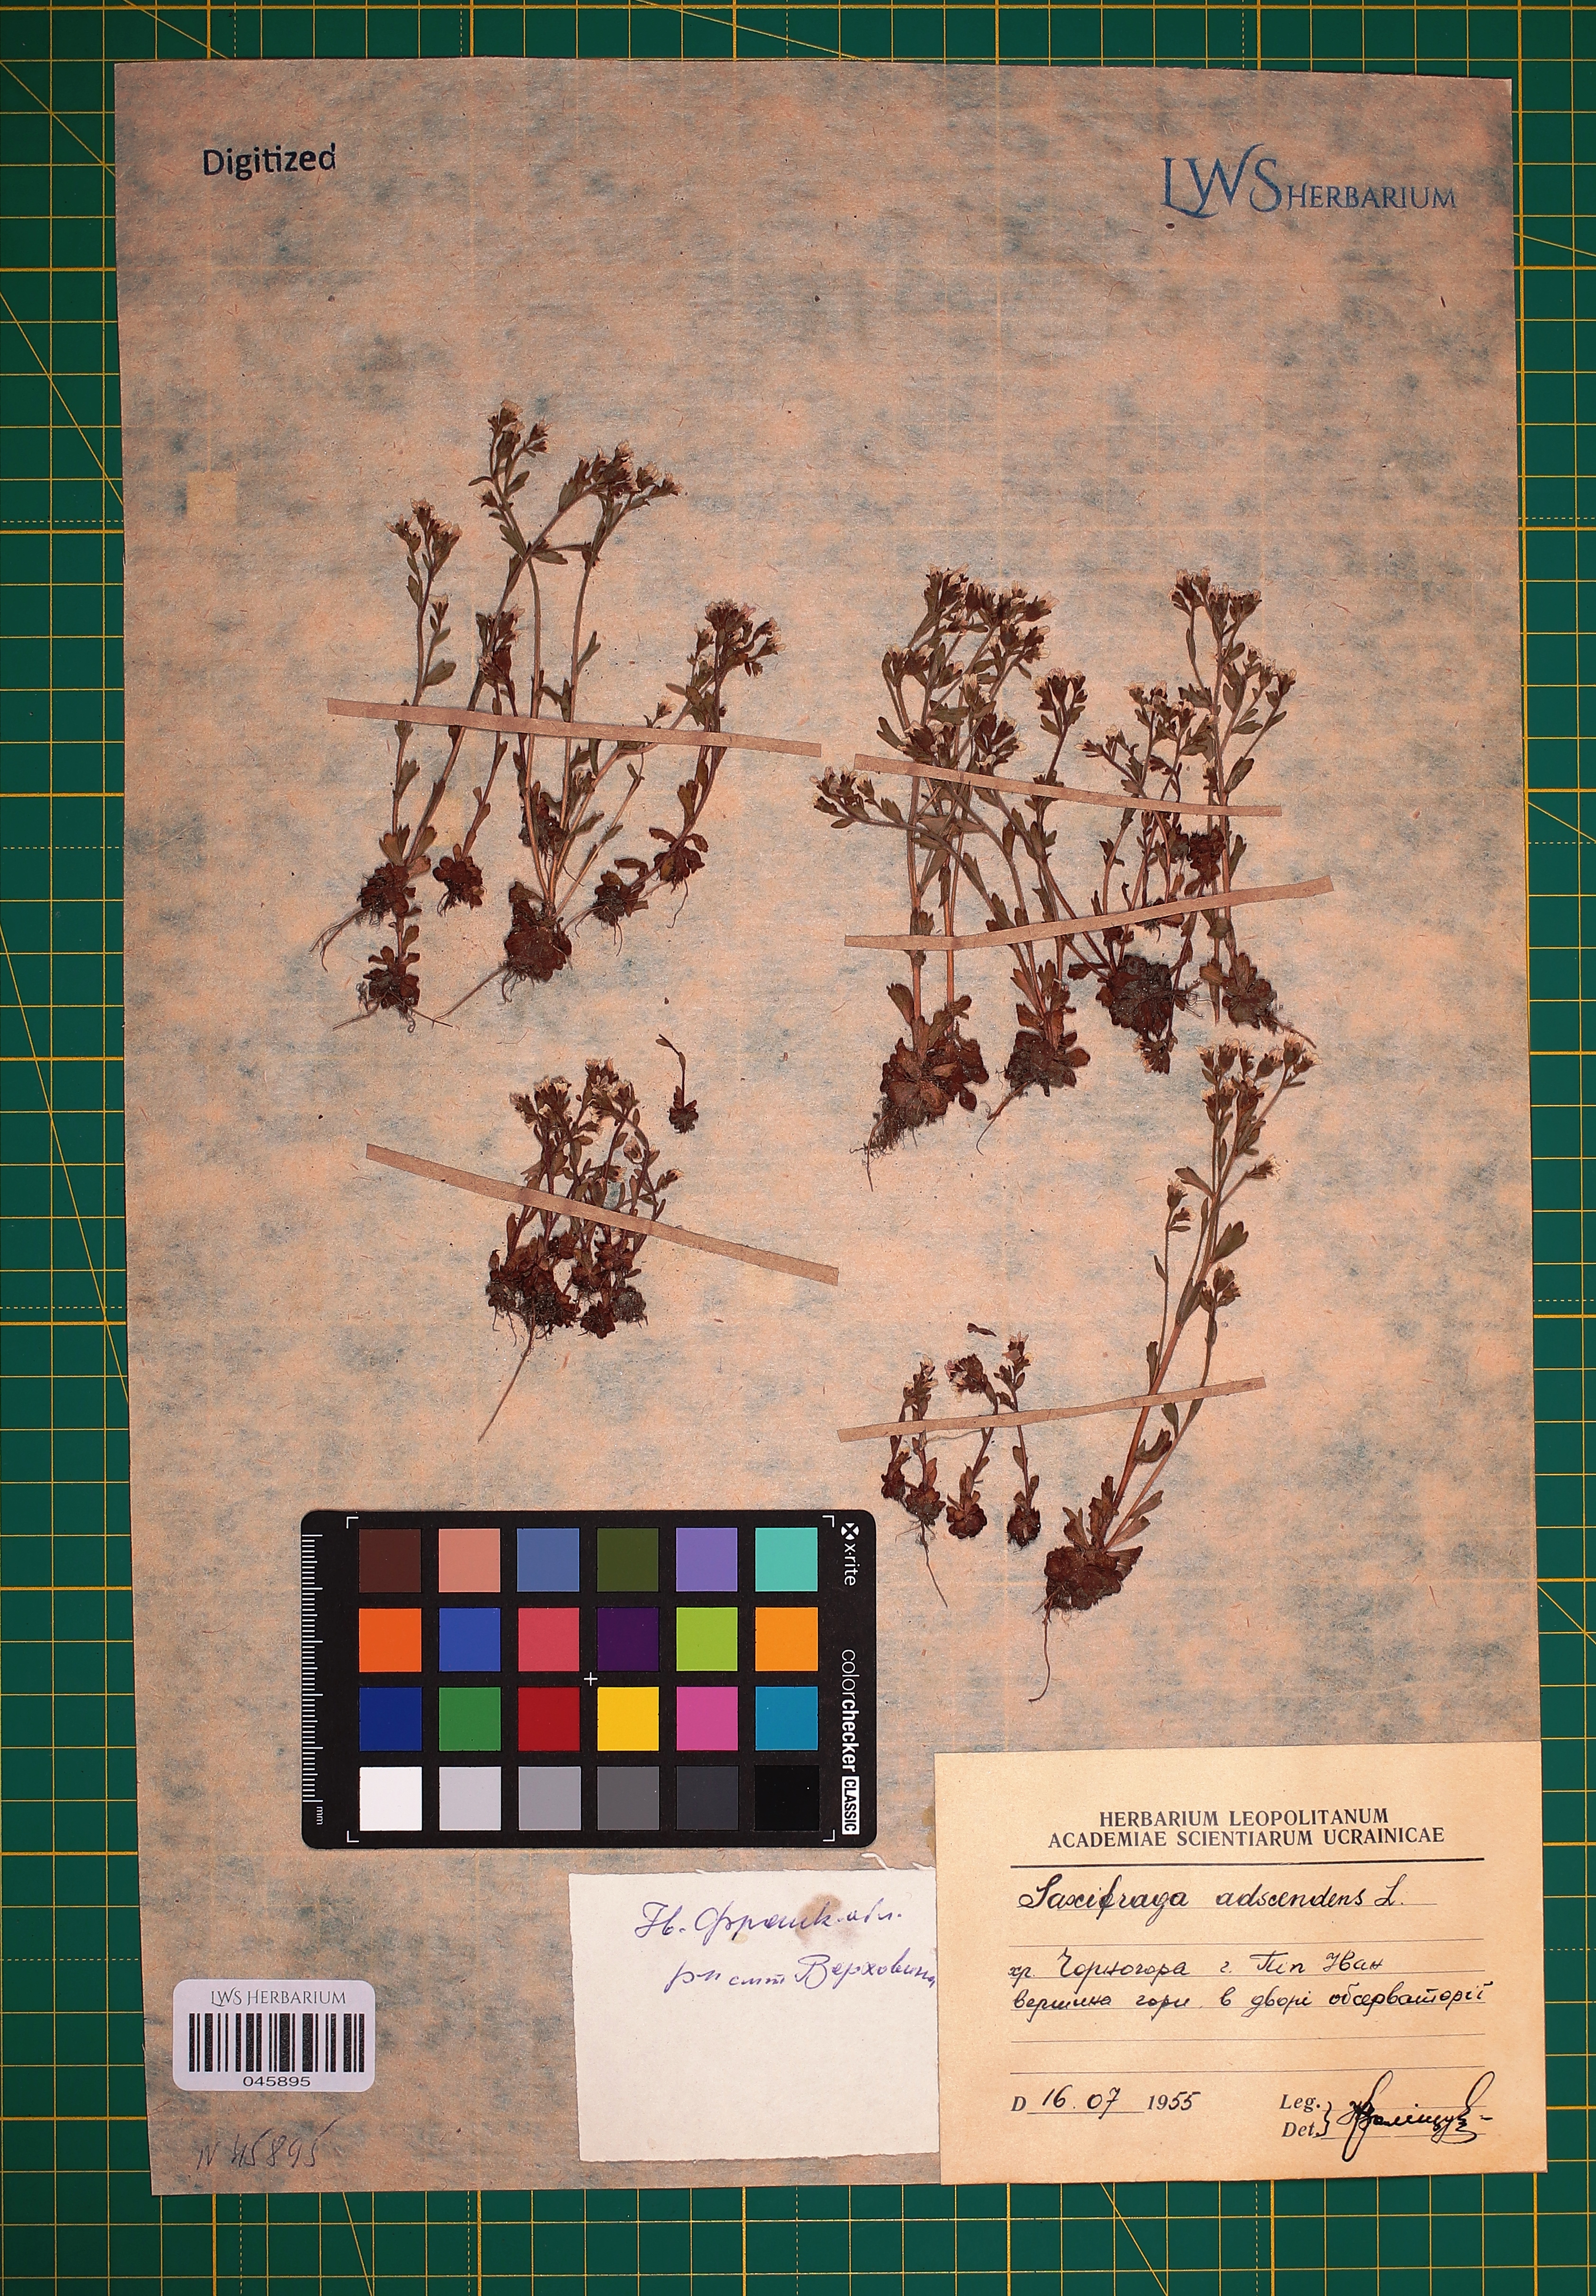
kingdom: Plantae
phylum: Tracheophyta
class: Magnoliopsida
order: Saxifragales
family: Saxifragaceae
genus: Saxifraga
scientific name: Saxifraga adscendens
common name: Ascending saxifrage
